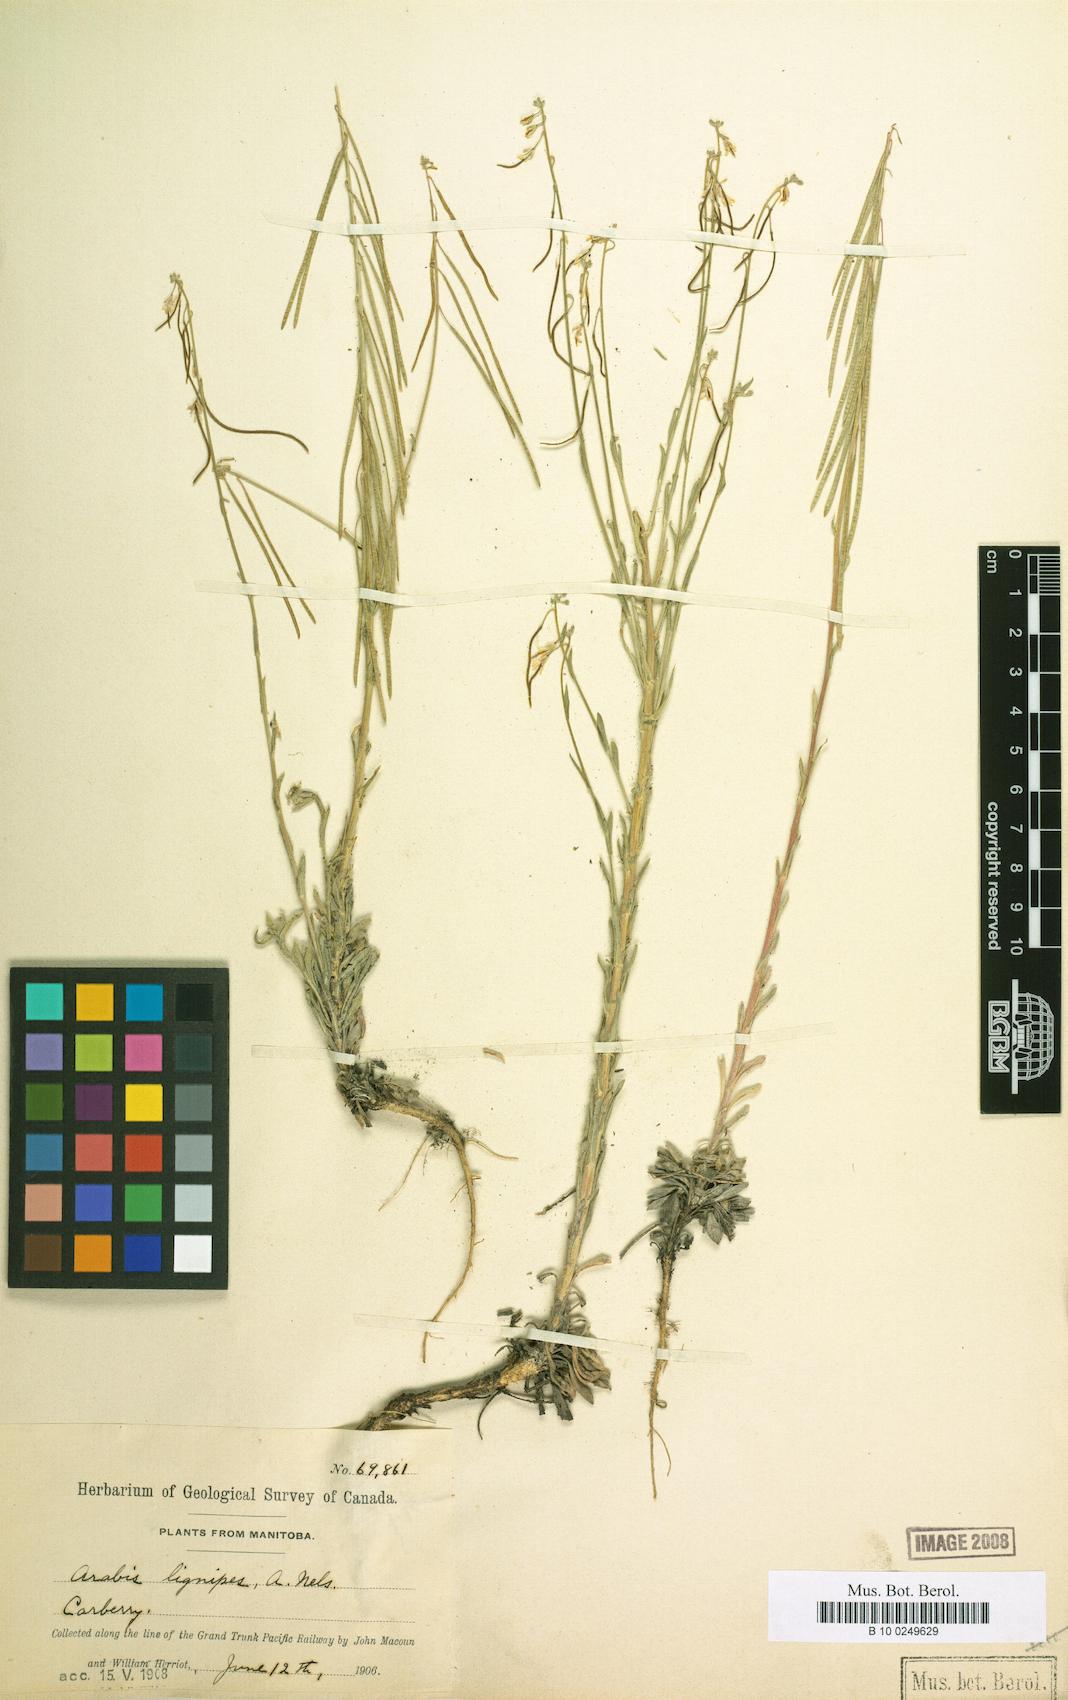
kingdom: Plantae
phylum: Tracheophyta
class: Magnoliopsida
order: Brassicales
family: Brassicaceae
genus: Boechera
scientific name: Boechera retrofracta
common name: Dangling suncress
